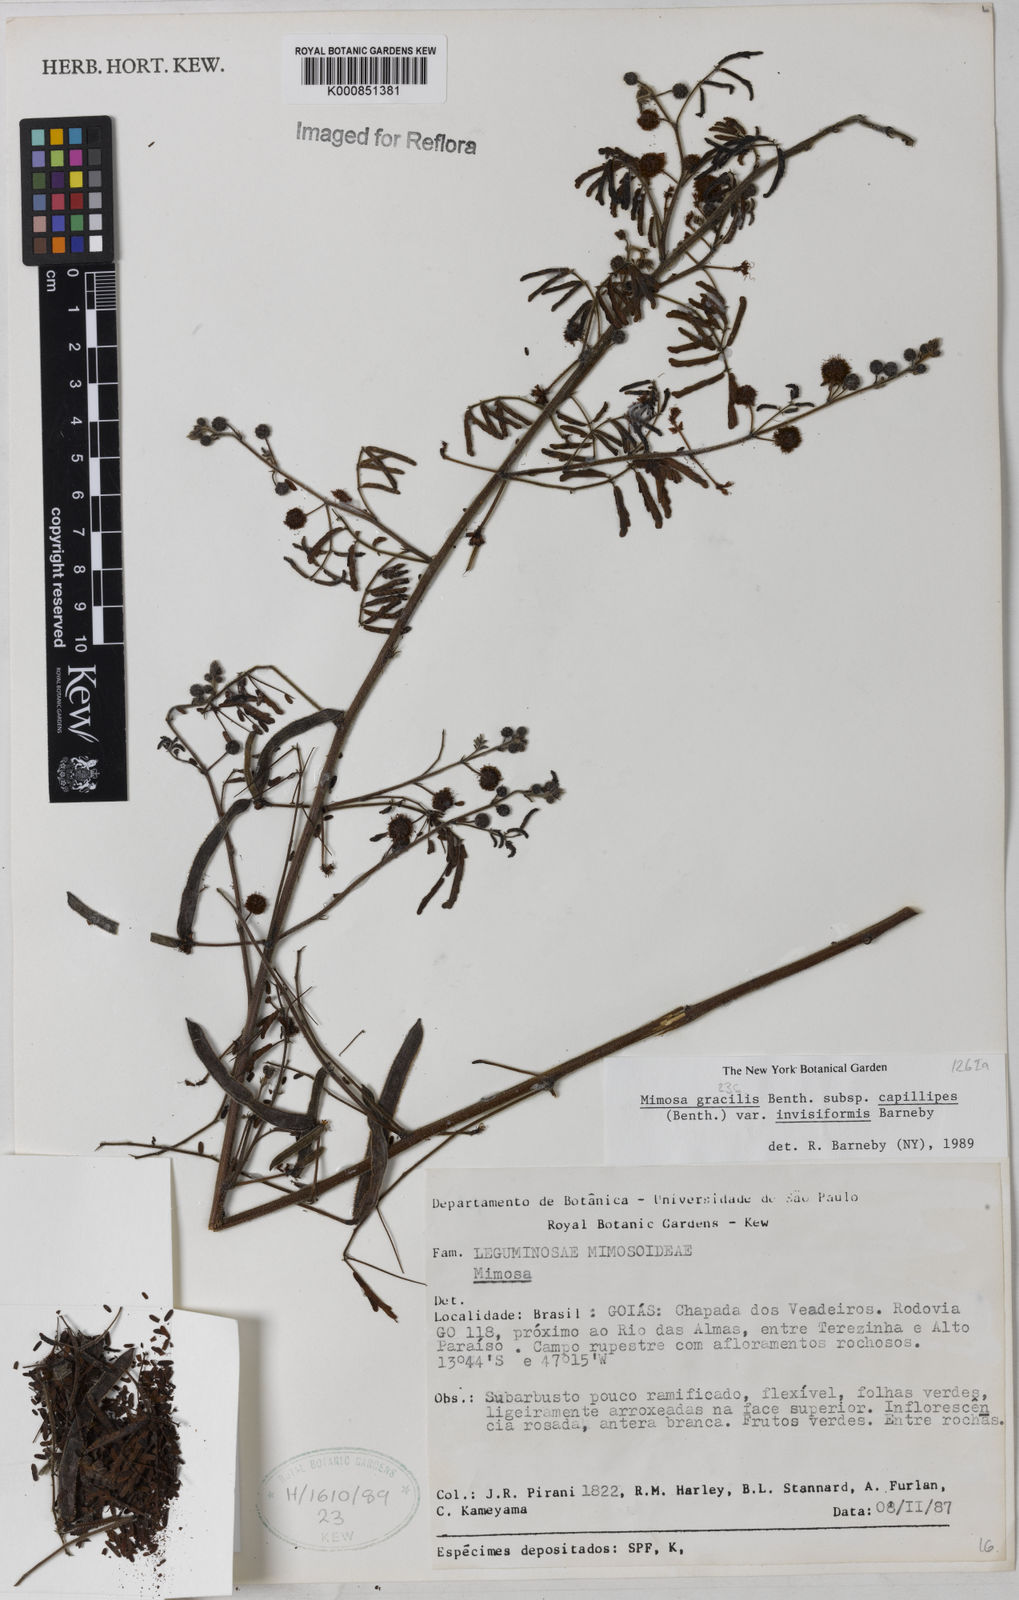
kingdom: Plantae
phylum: Tracheophyta
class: Magnoliopsida
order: Fabales
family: Fabaceae
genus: Mimosa
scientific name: Mimosa gracilis
